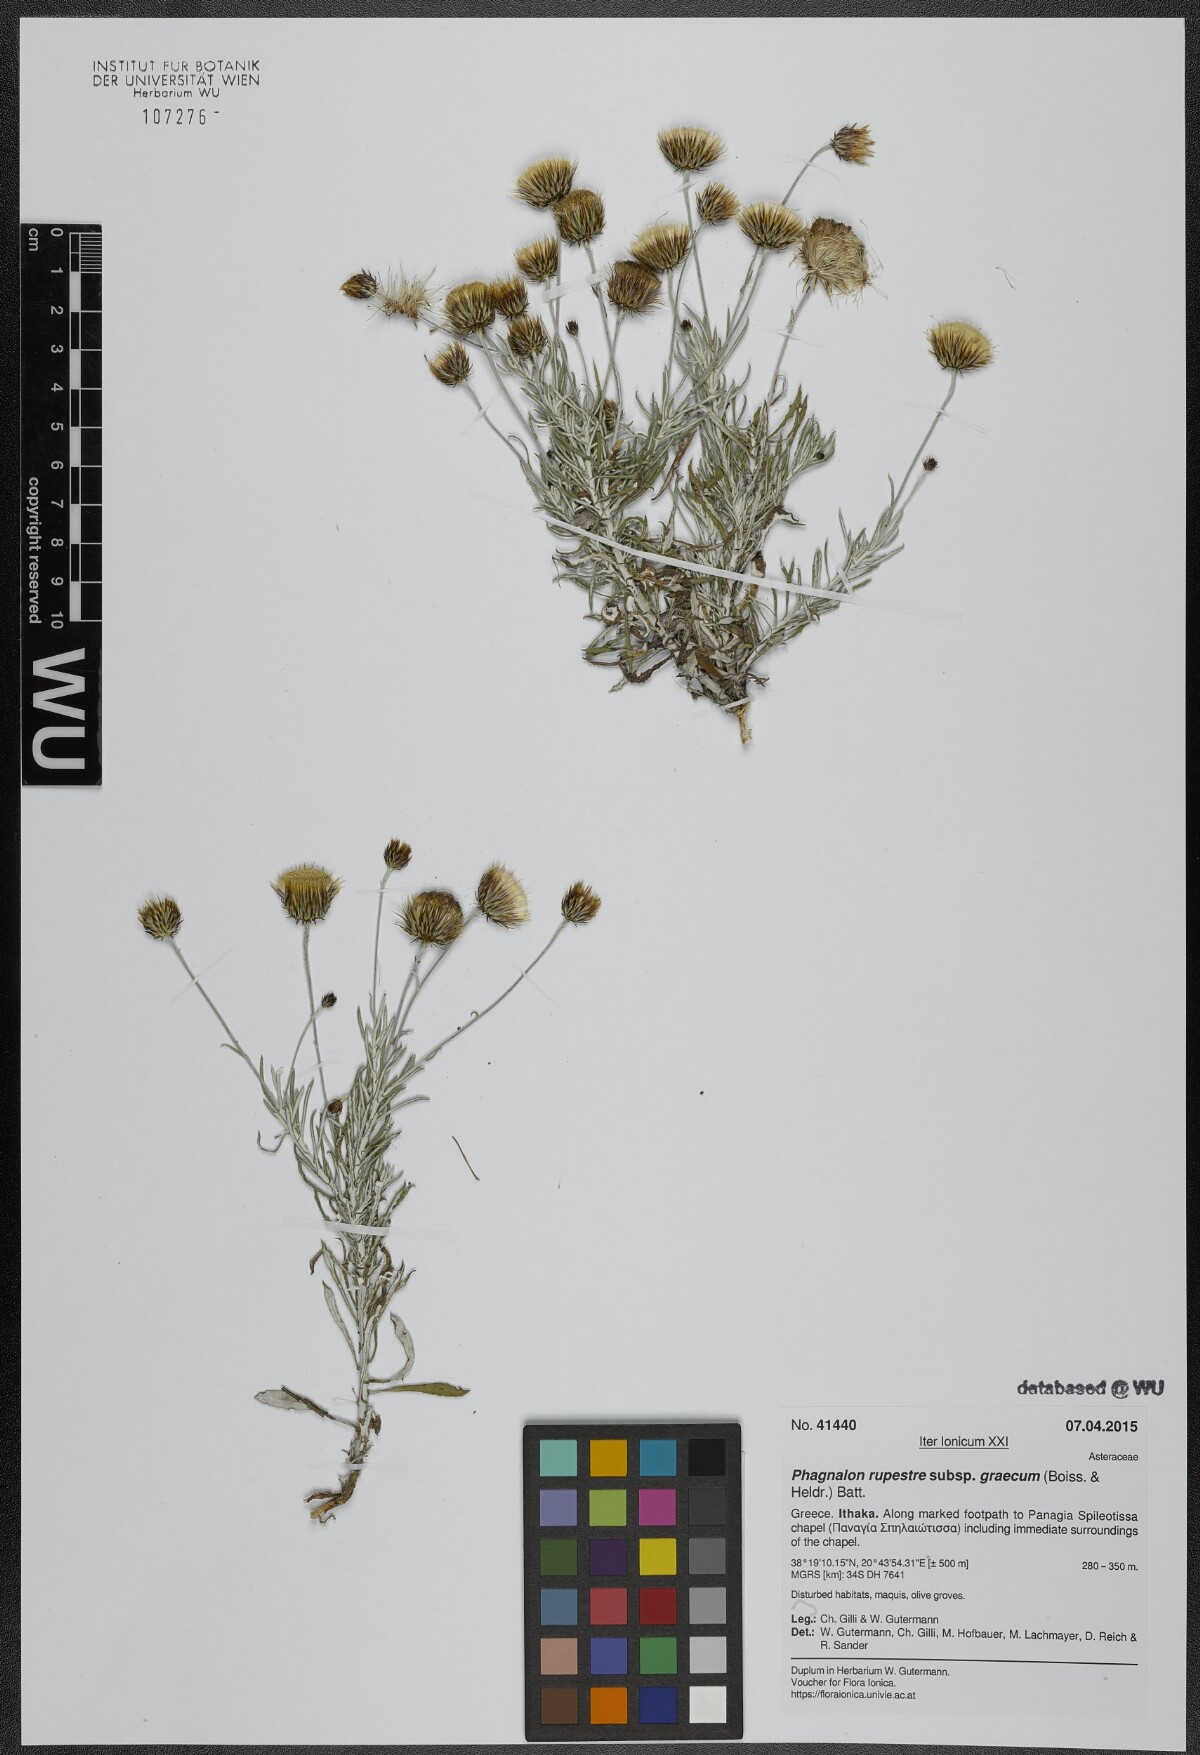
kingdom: Plantae
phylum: Tracheophyta
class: Magnoliopsida
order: Asterales
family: Asteraceae
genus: Phagnalon
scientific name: Phagnalon graecum
